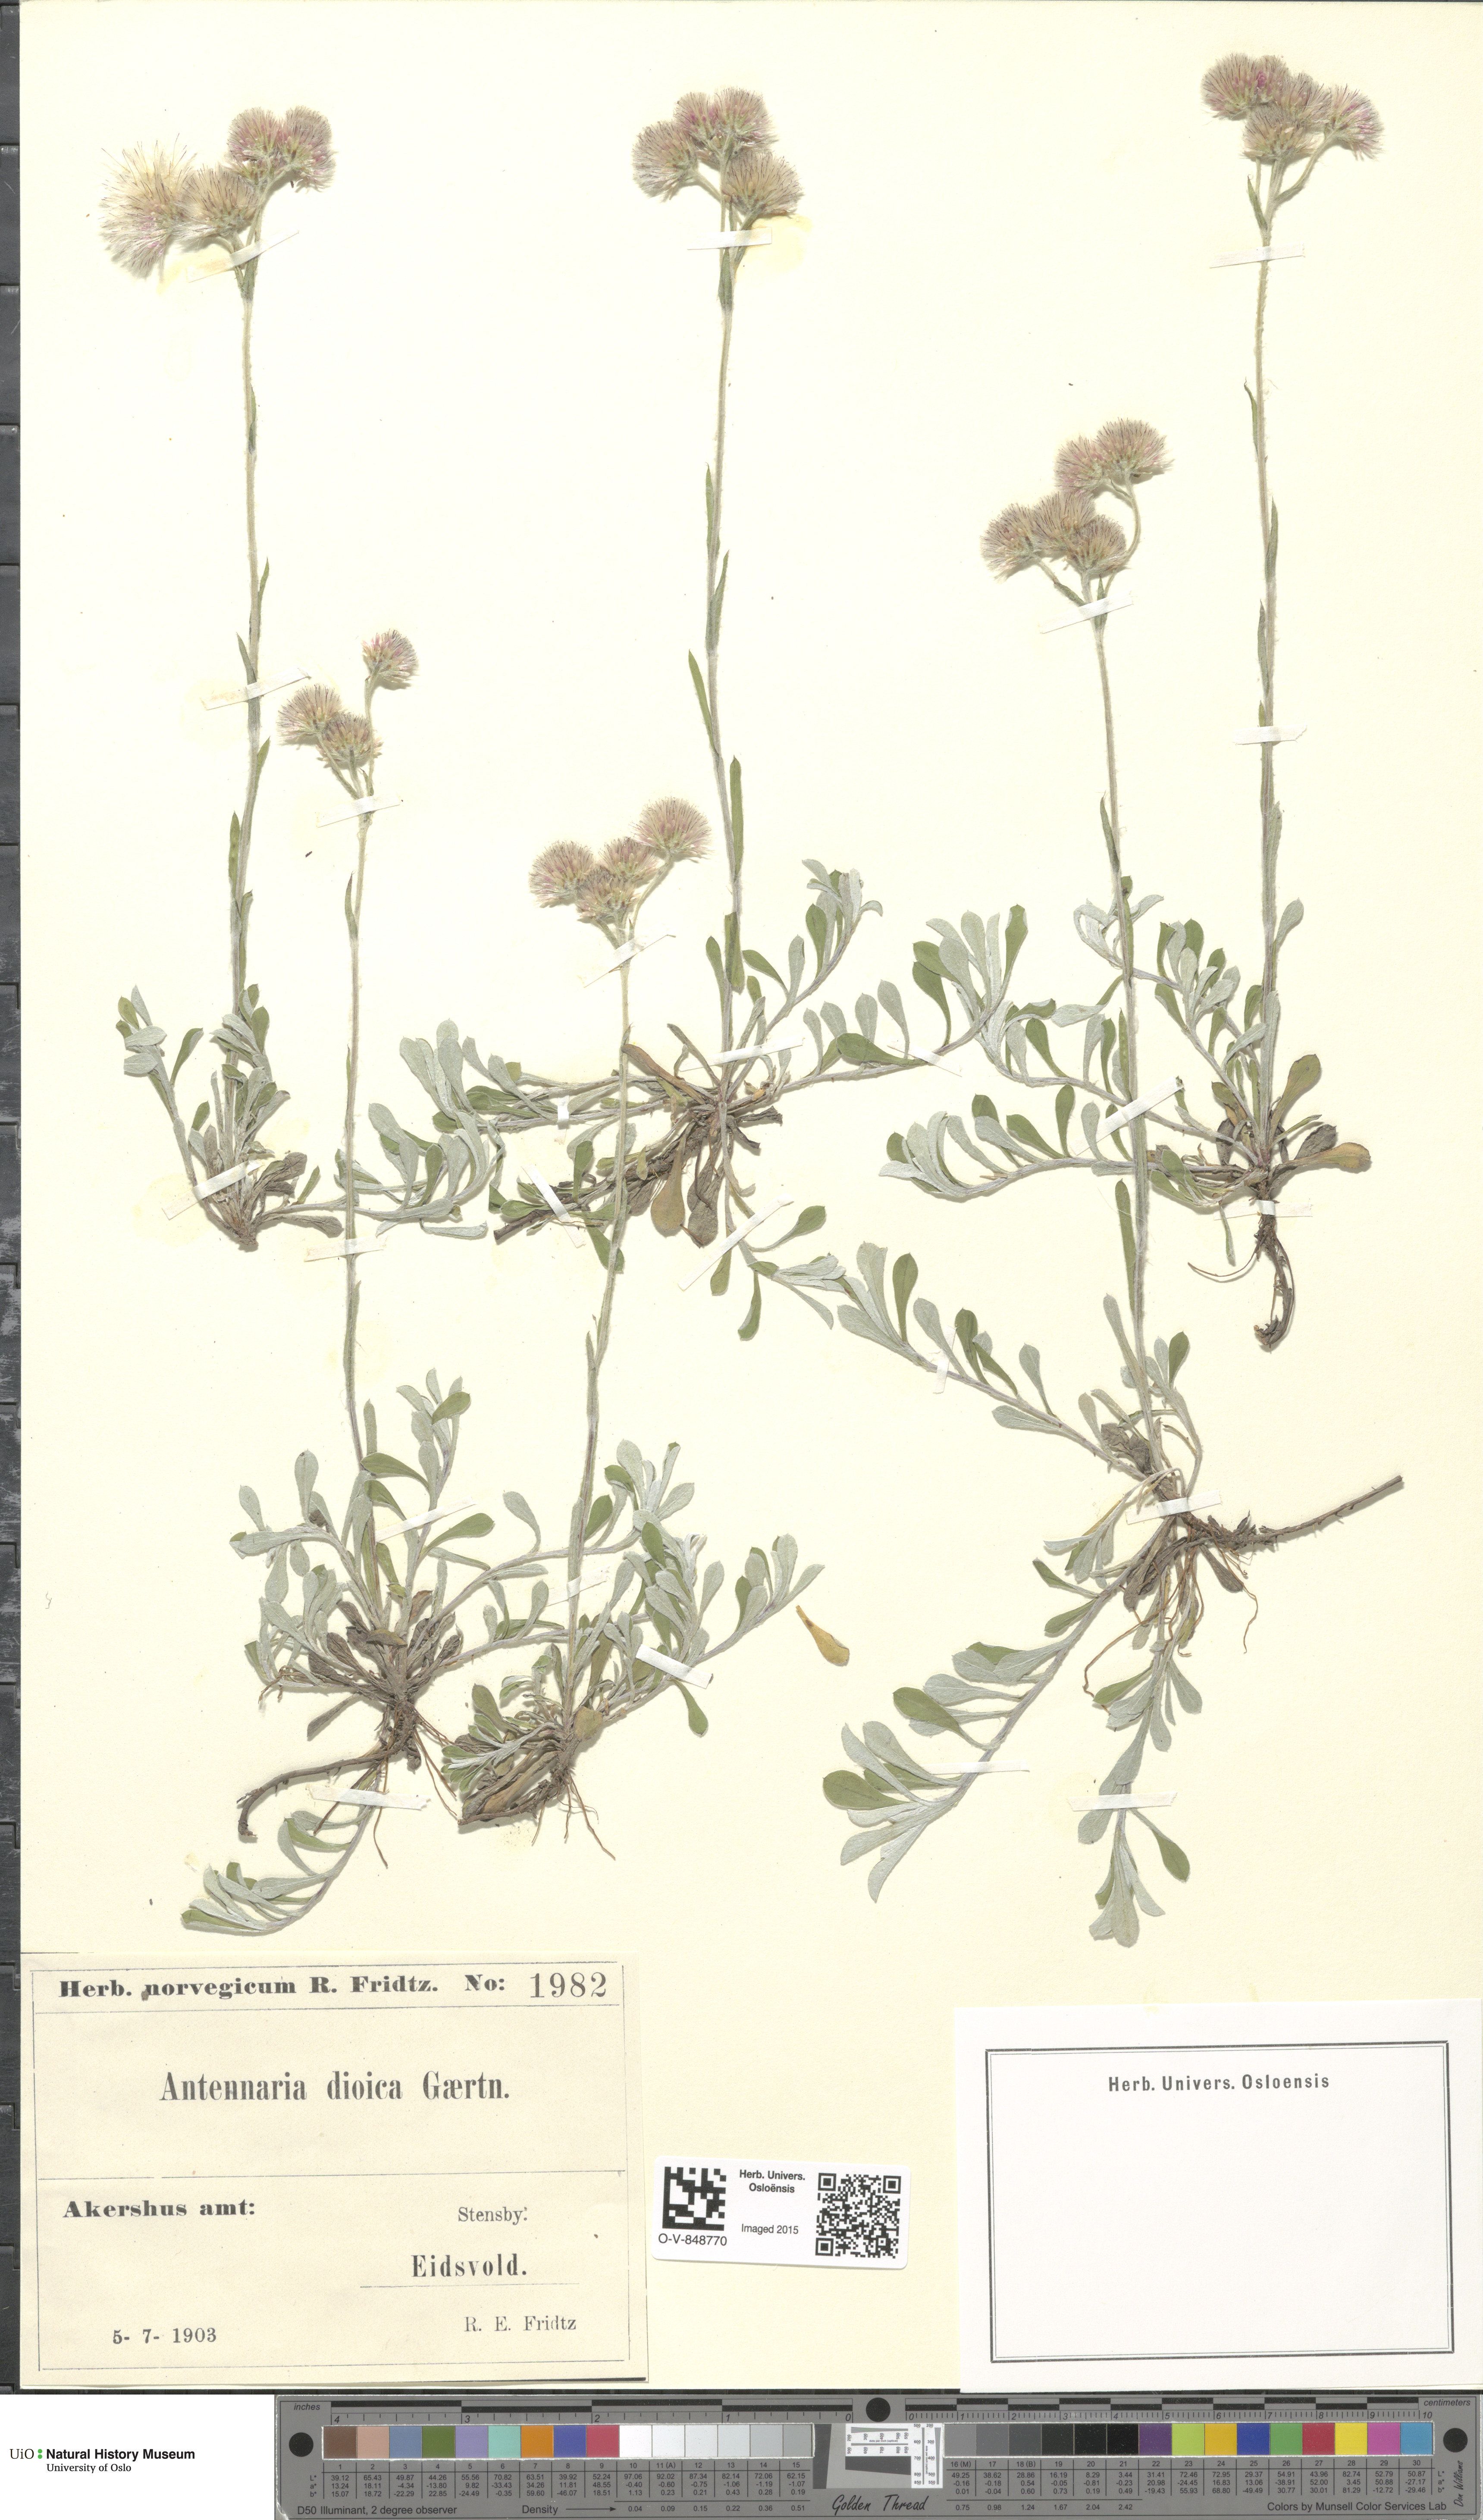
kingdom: Plantae
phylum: Tracheophyta
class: Magnoliopsida
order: Asterales
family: Asteraceae
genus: Antennaria
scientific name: Antennaria dioica
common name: Mountain everlasting
